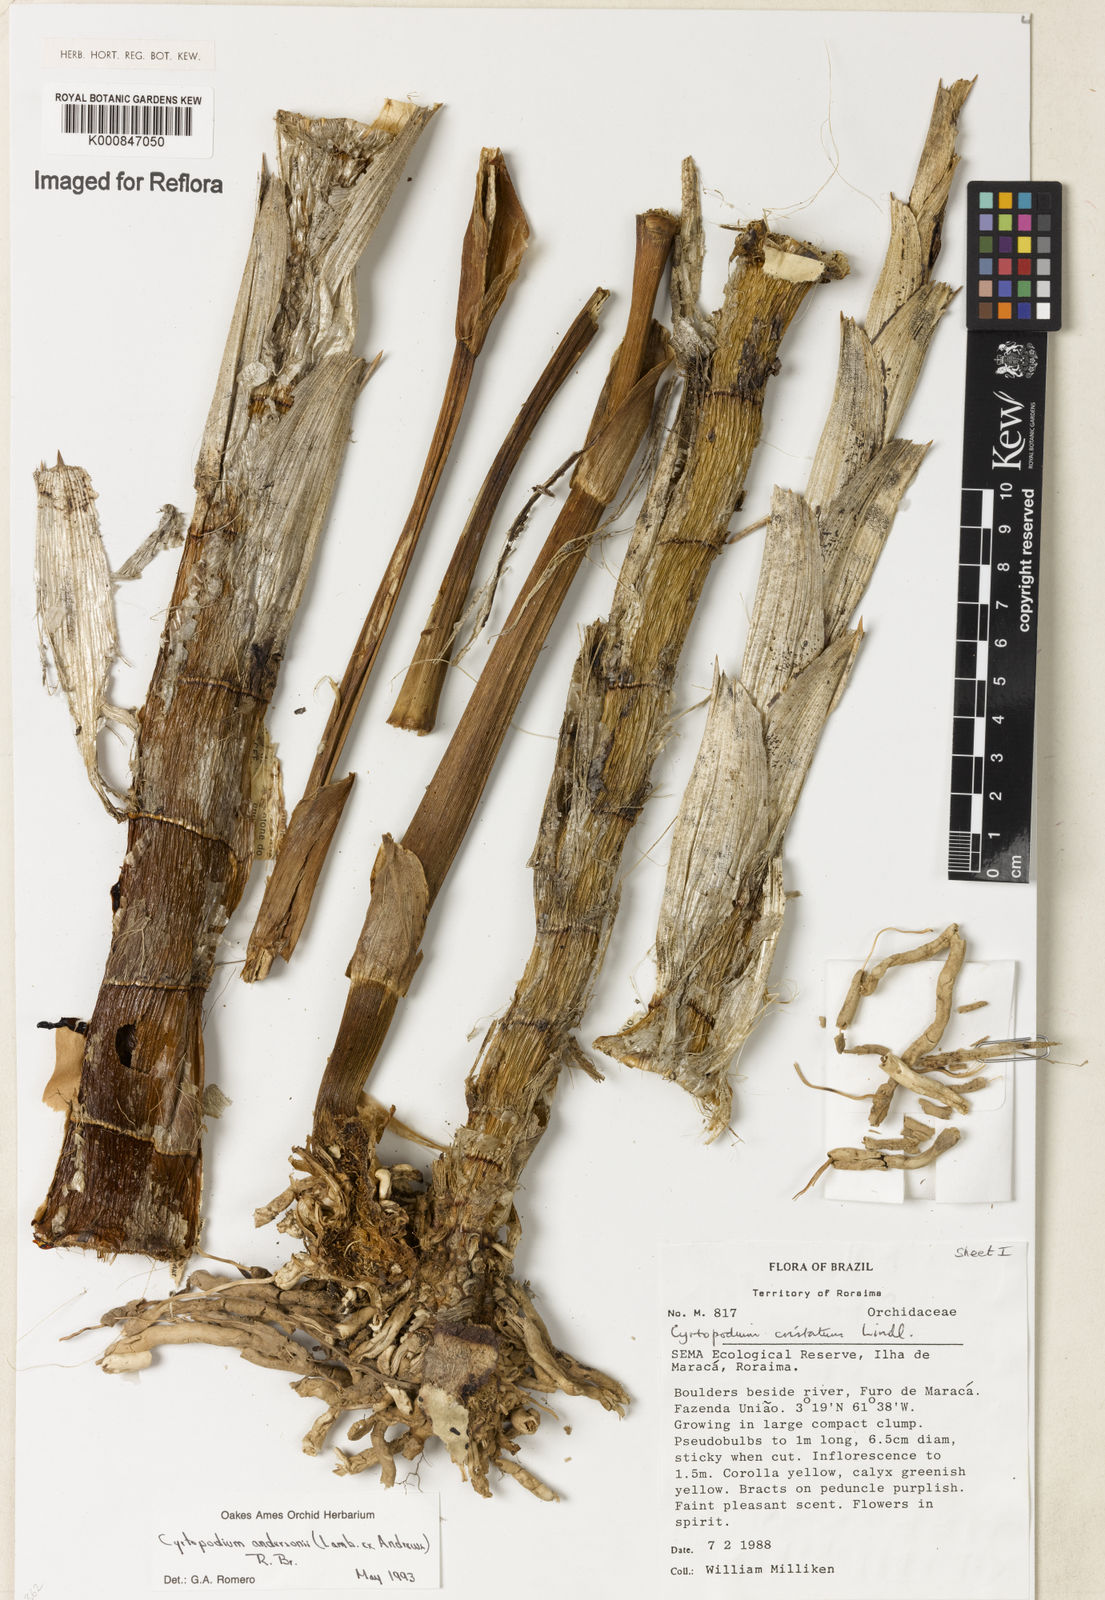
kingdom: Plantae
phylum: Tracheophyta
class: Liliopsida
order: Asparagales
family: Orchidaceae
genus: Cyrtopodium
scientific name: Cyrtopodium andersonii
